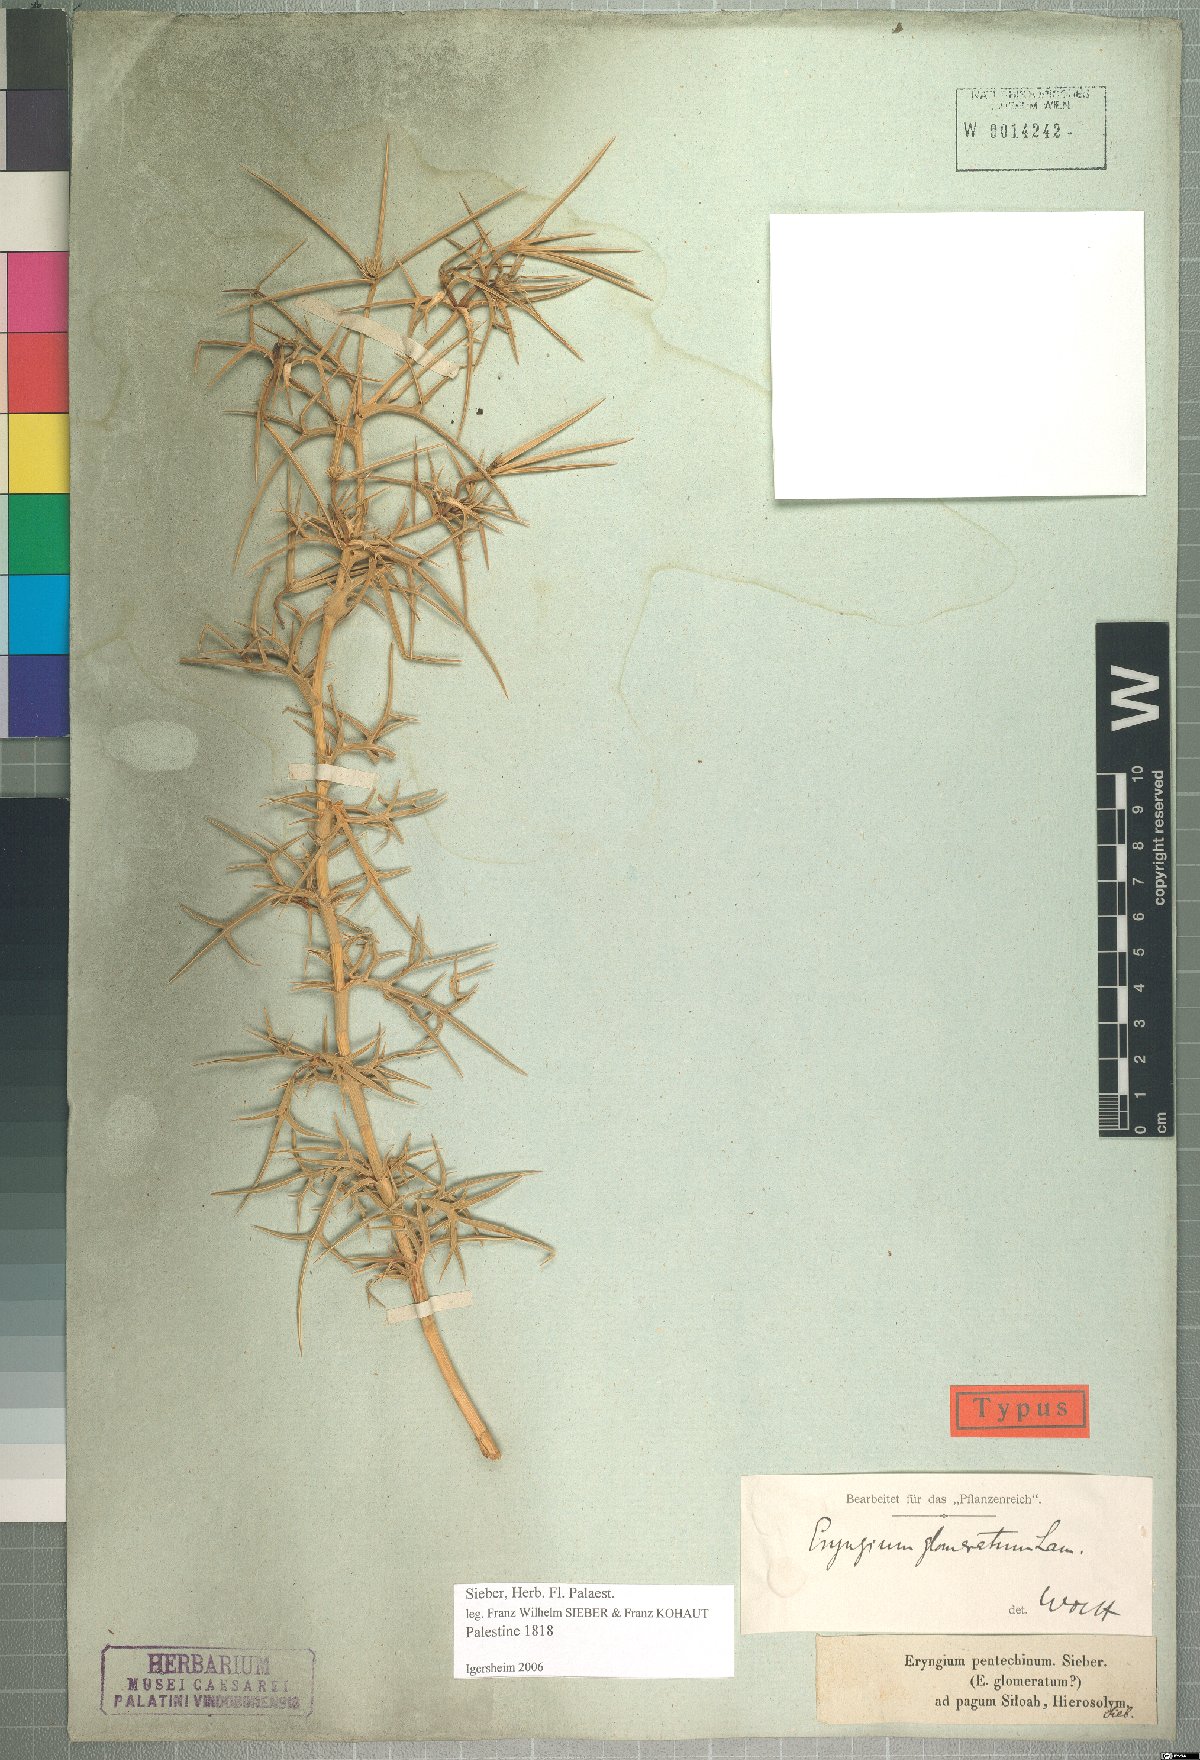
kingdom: Plantae
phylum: Tracheophyta
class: Magnoliopsida
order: Apiales
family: Apiaceae
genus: Eryngium
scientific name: Eryngium glomeratum
